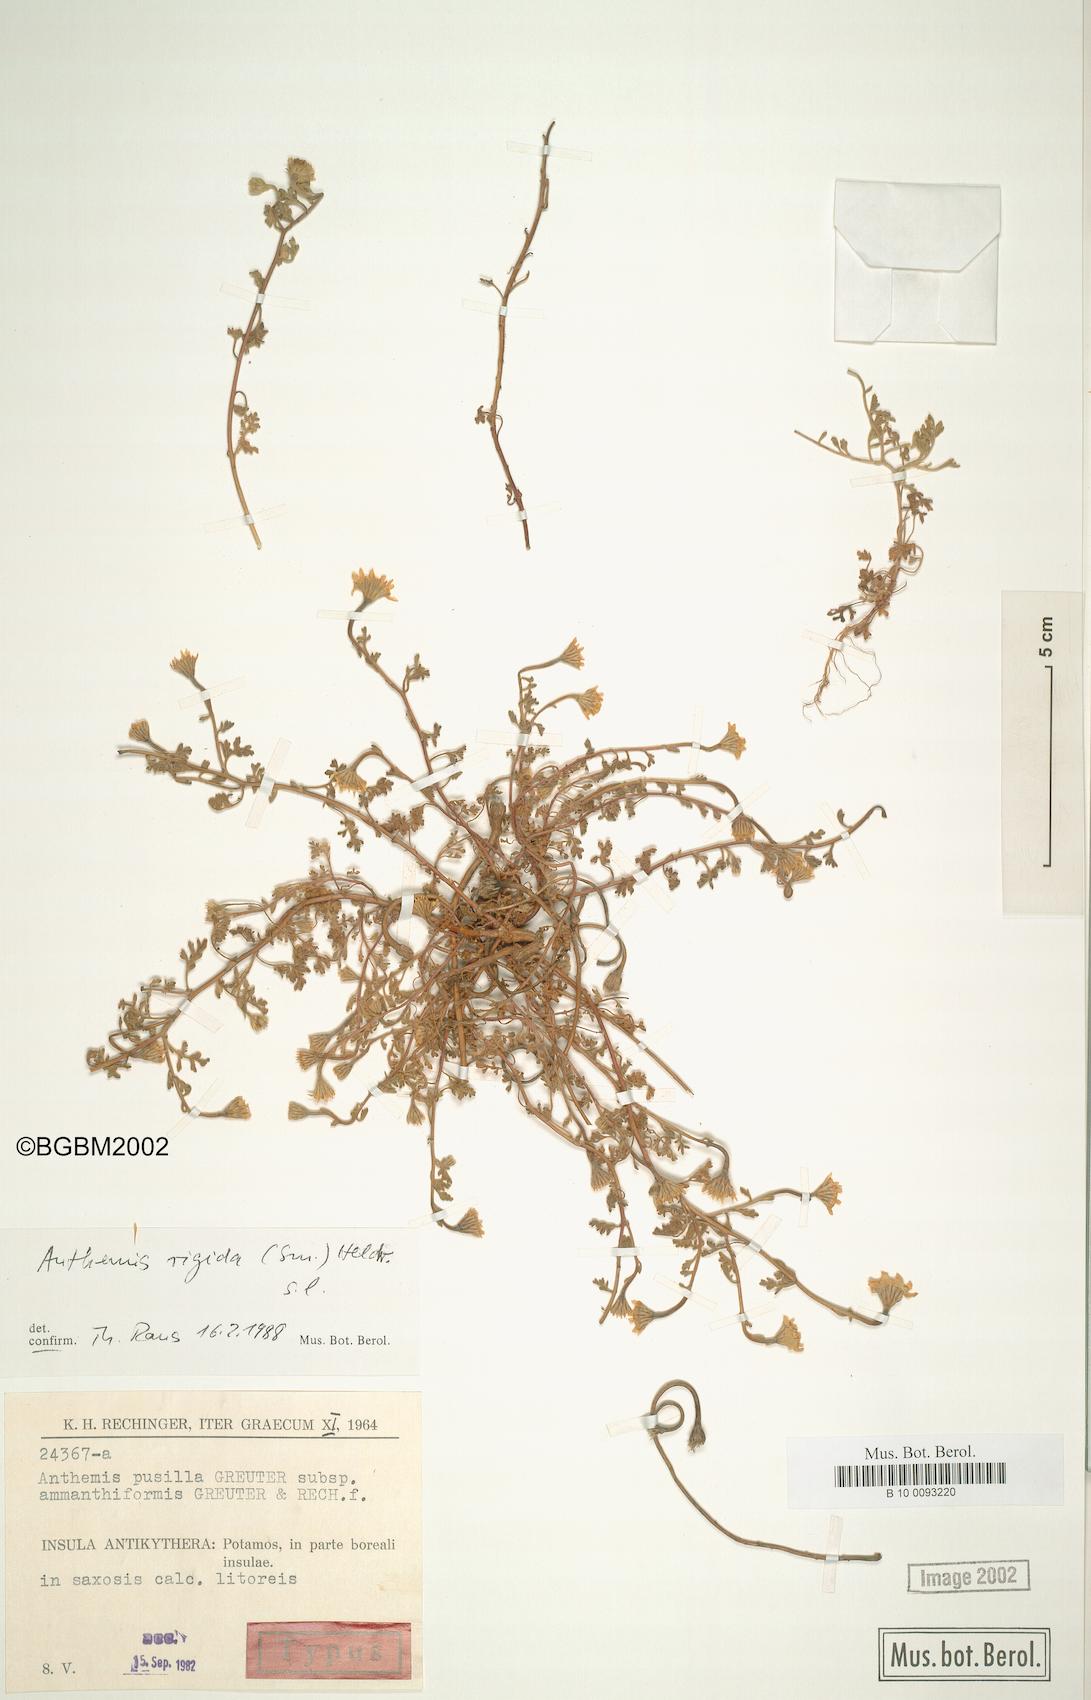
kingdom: Plantae
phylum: Tracheophyta
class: Magnoliopsida
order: Asterales
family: Asteraceae
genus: Anthemis
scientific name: Anthemis rigida
